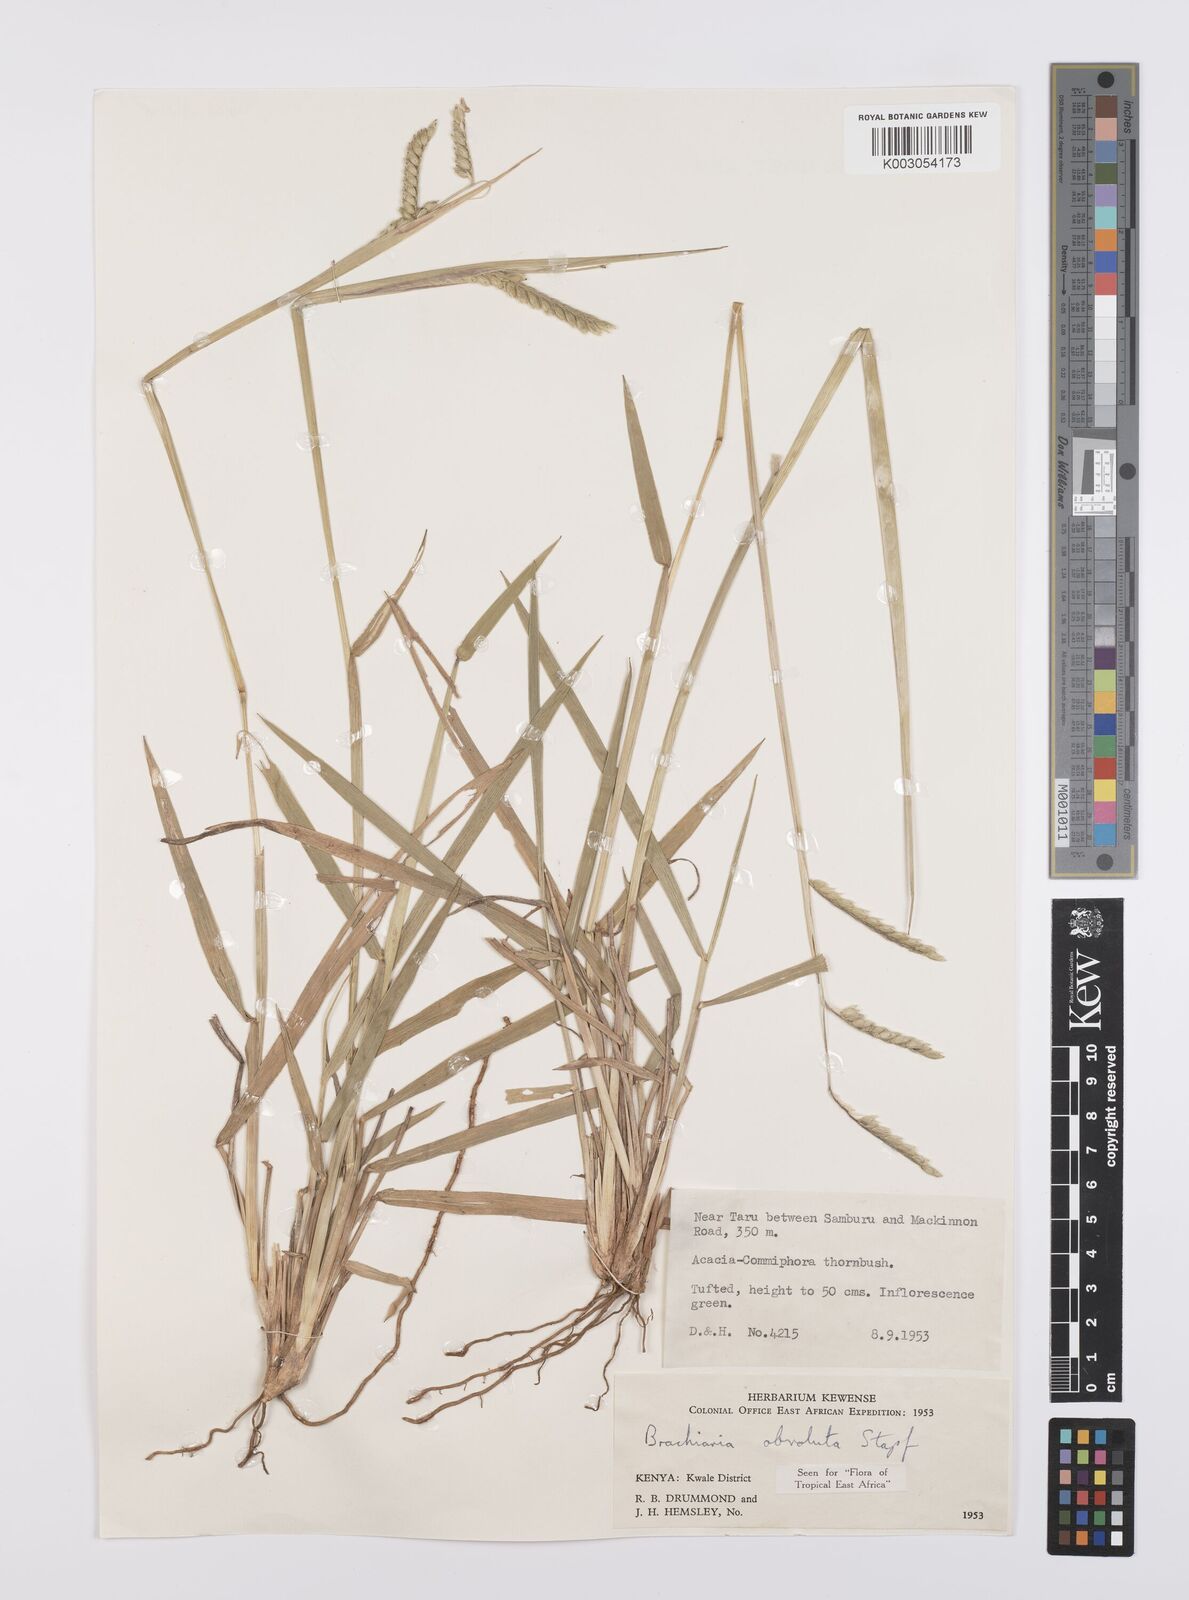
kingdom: Plantae
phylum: Tracheophyta
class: Liliopsida
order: Poales
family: Poaceae
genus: Urochloa
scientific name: Urochloa dictyoneura
